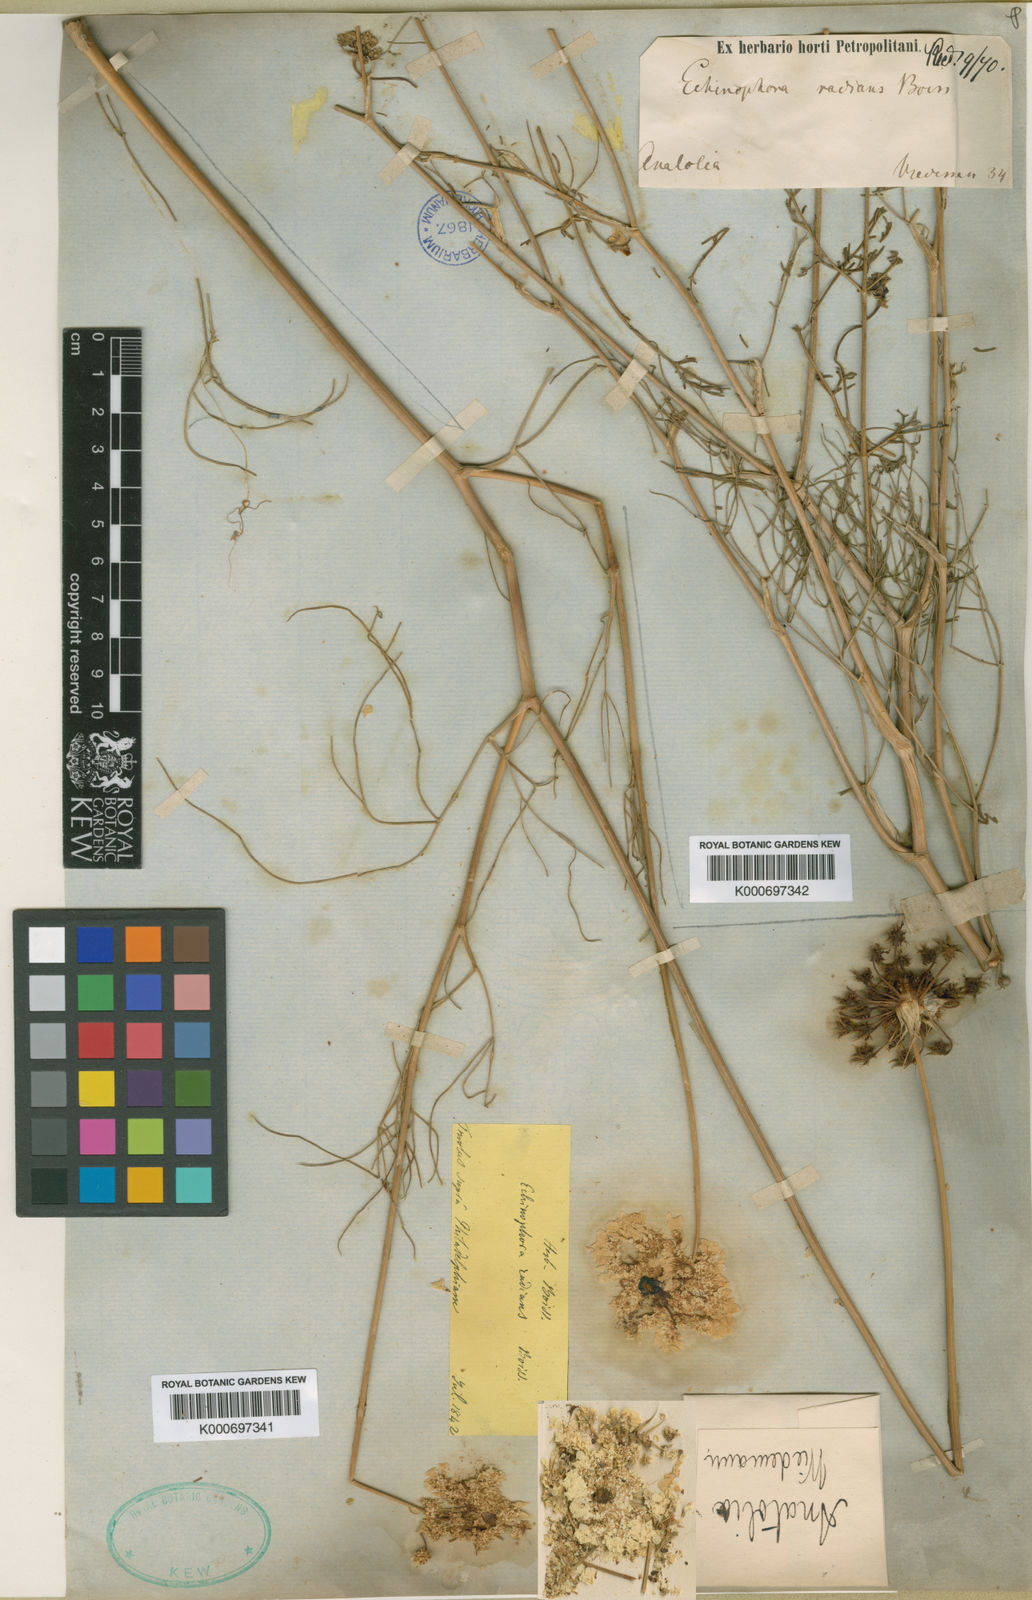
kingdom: Plantae
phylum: Tracheophyta
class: Magnoliopsida
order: Apiales
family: Apiaceae
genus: Echinophora
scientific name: Echinophora orientalis
